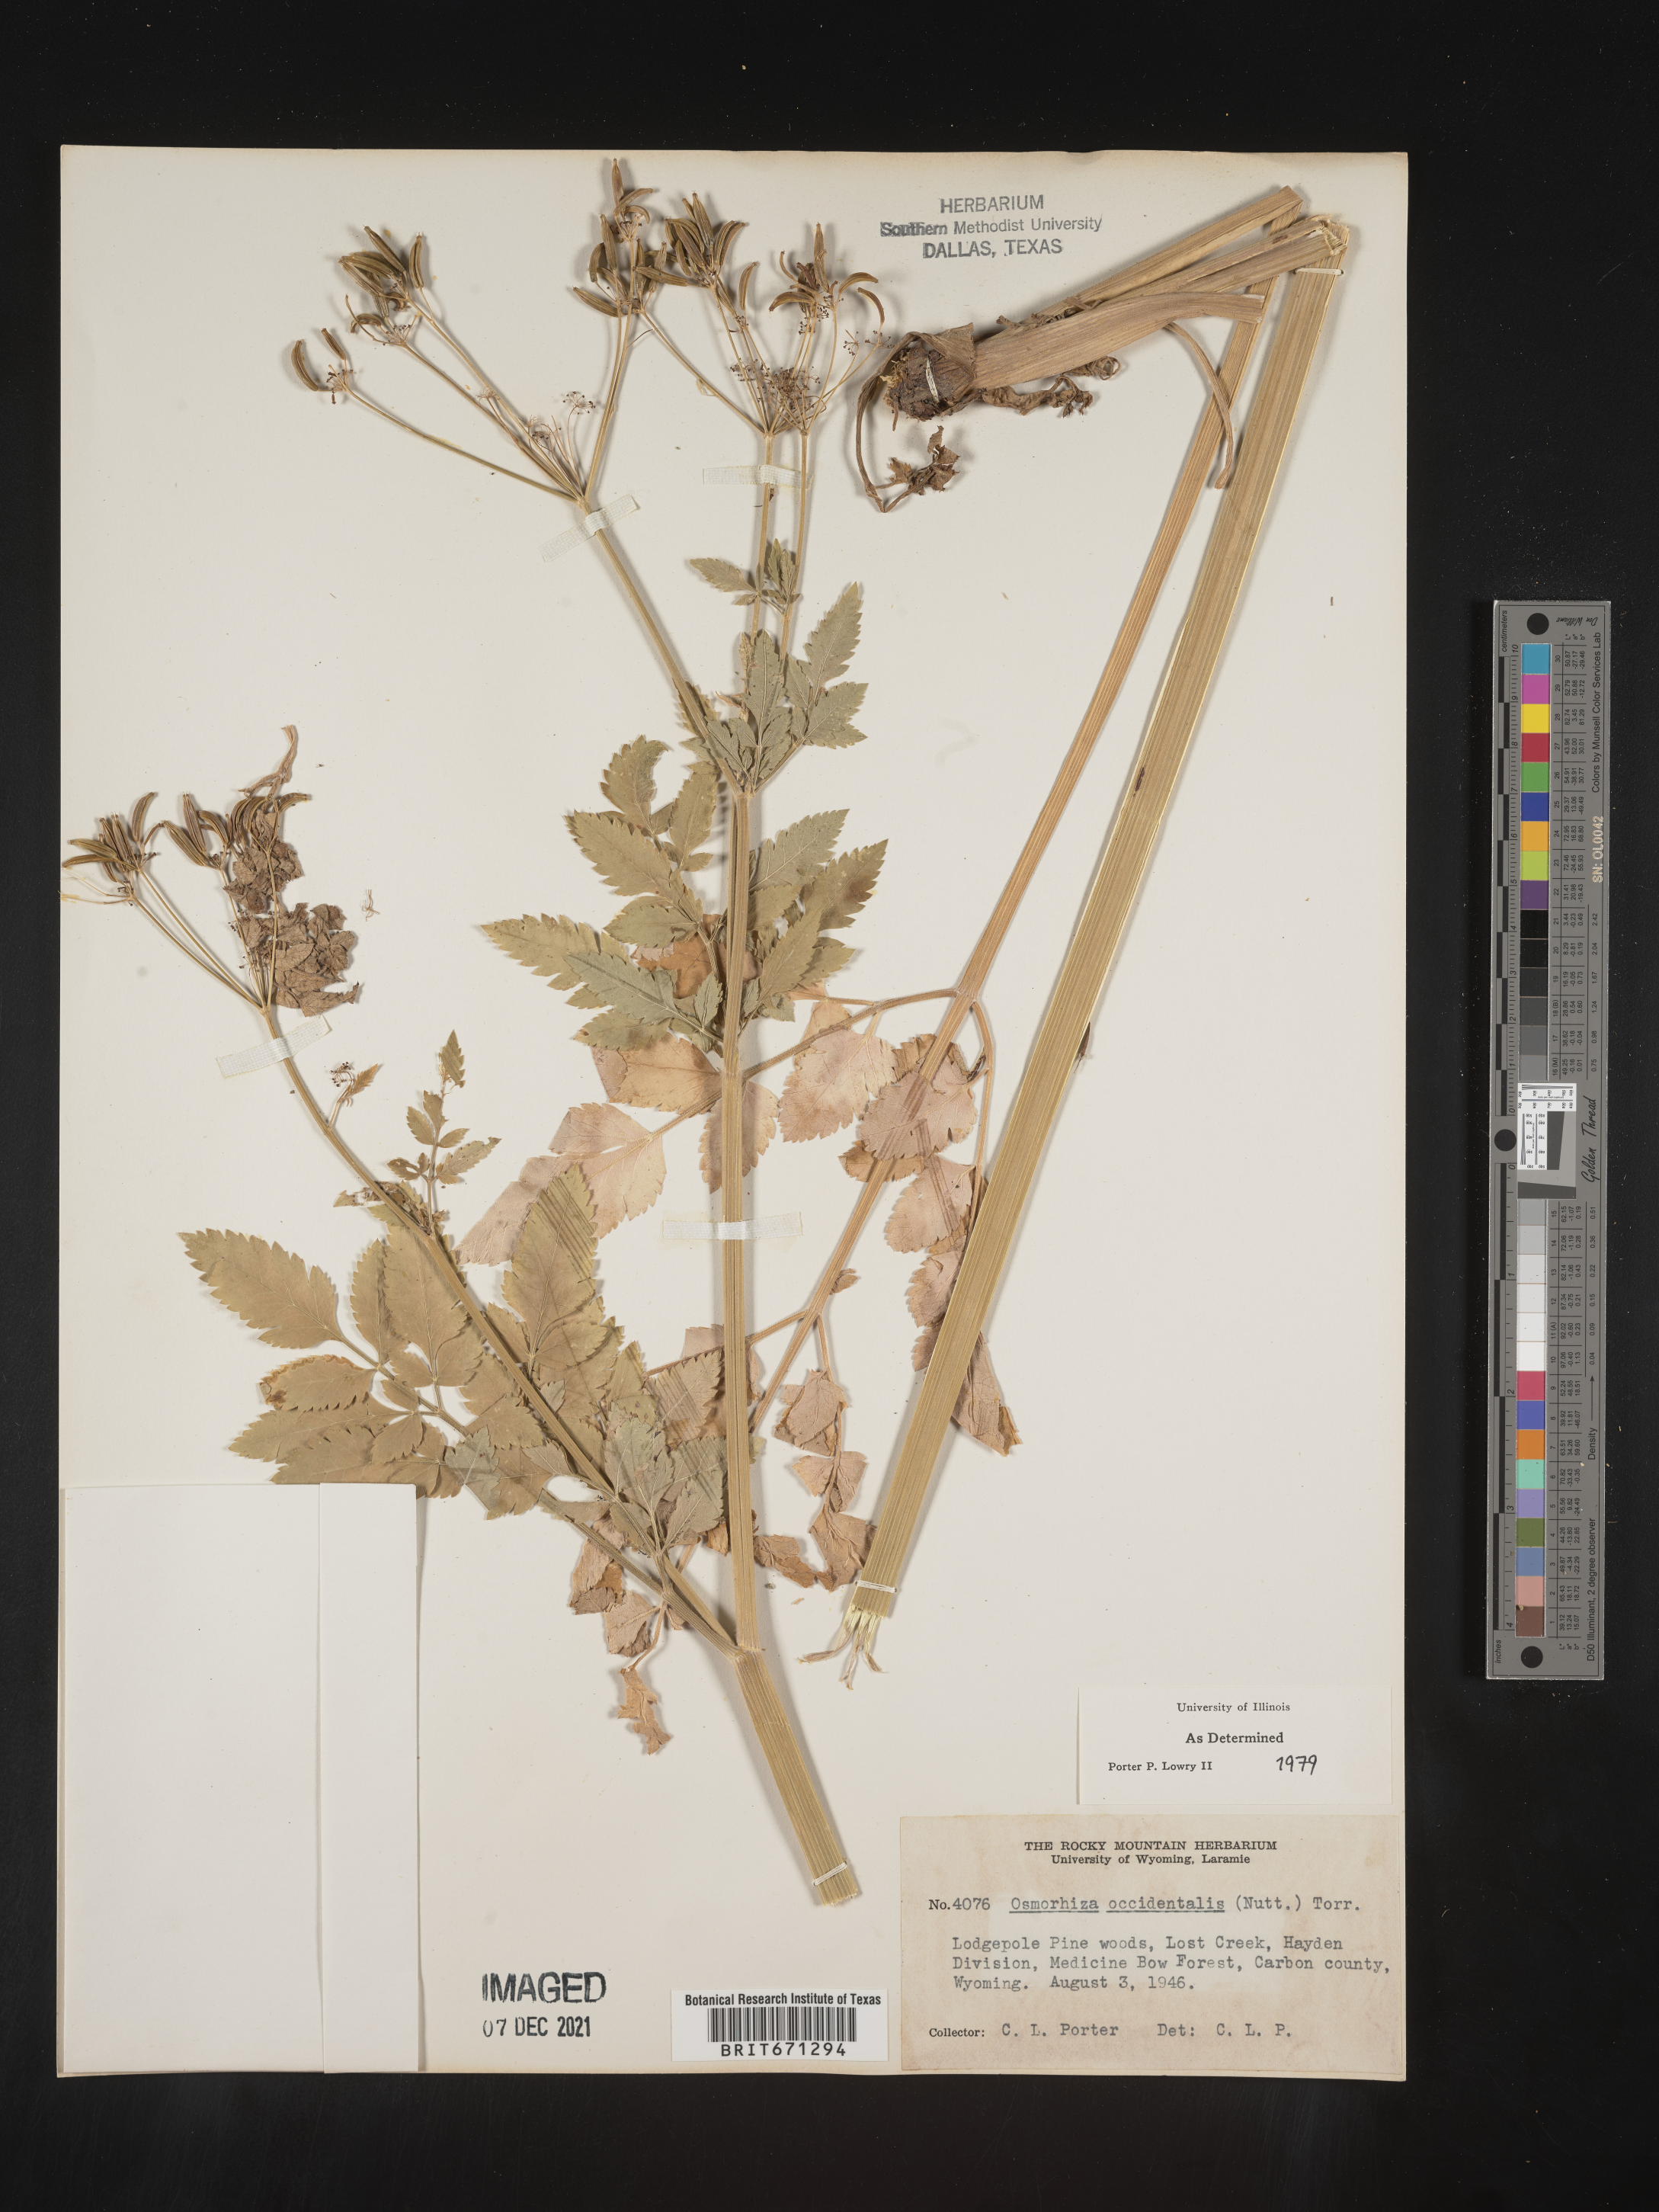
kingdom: Plantae
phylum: Tracheophyta
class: Magnoliopsida
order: Apiales
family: Apiaceae
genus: Osmorhiza
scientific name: Osmorhiza occidentalis
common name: Western sweet cicely
